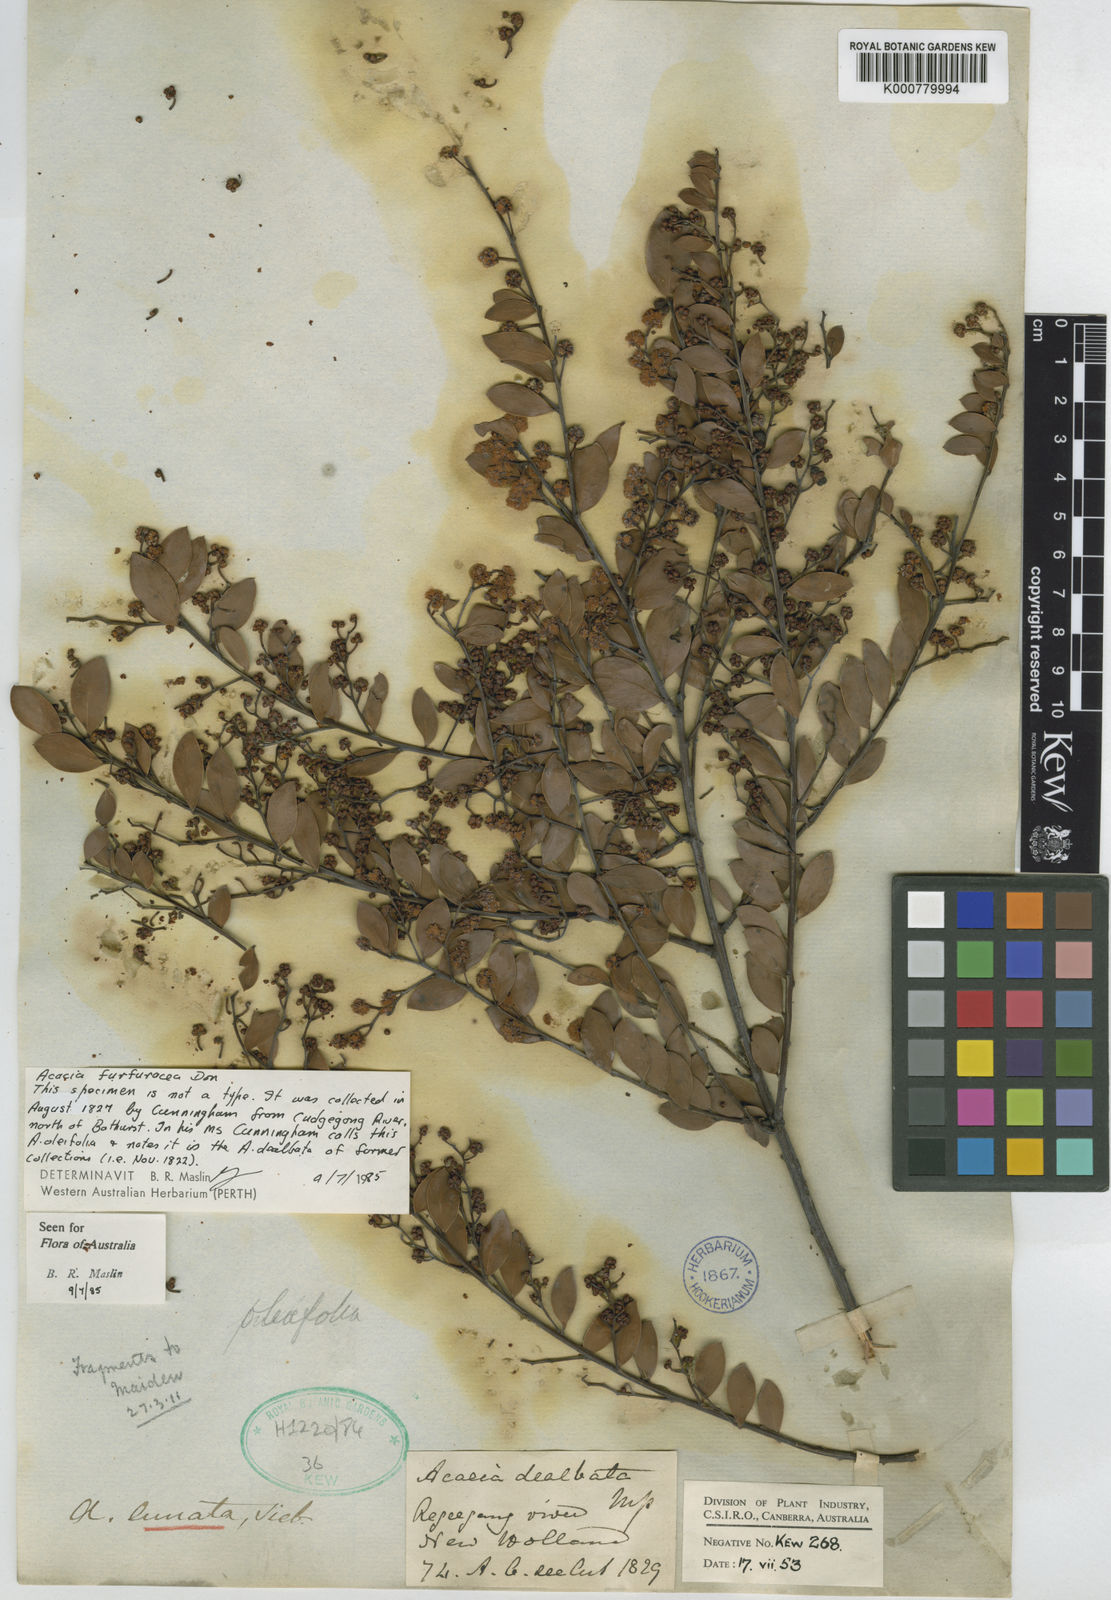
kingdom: Plantae
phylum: Tracheophyta
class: Magnoliopsida
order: Fabales
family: Fabaceae
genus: Acacia
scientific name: Acacia
